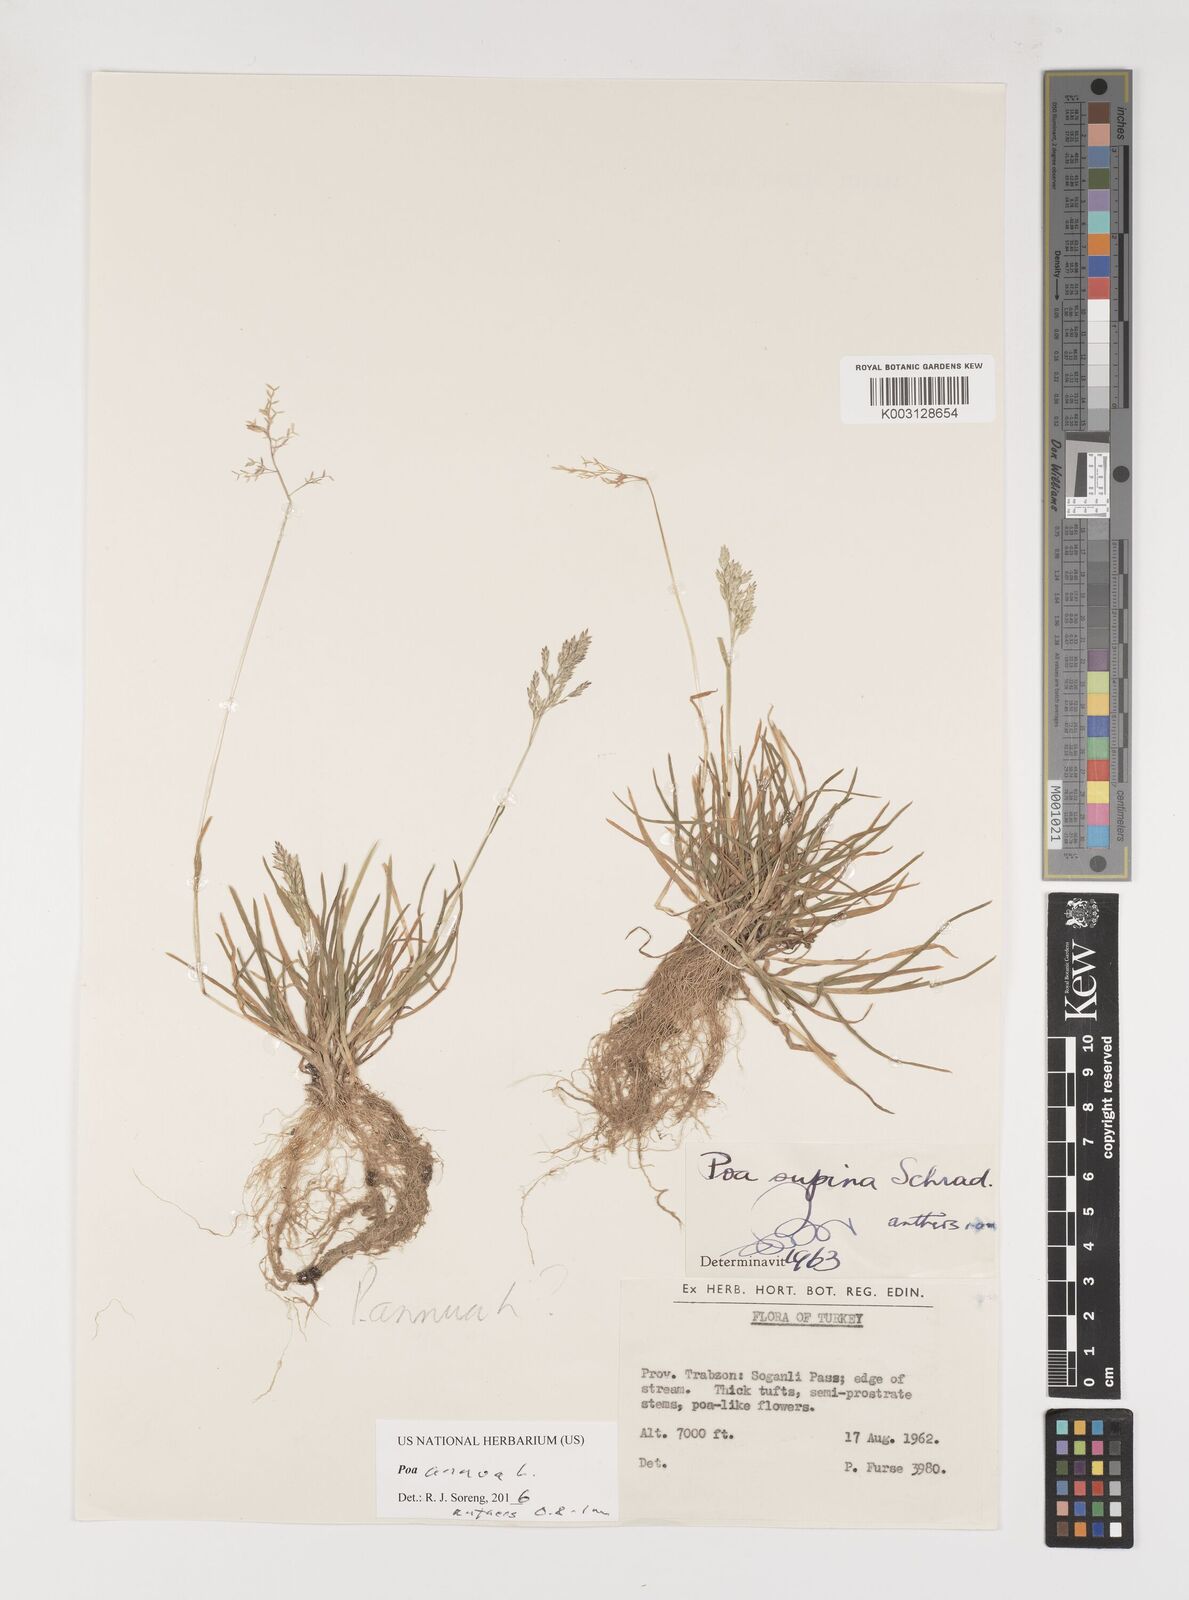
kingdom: Plantae
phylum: Tracheophyta
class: Liliopsida
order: Poales
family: Poaceae
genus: Poa
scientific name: Poa annua
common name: Annual bluegrass
